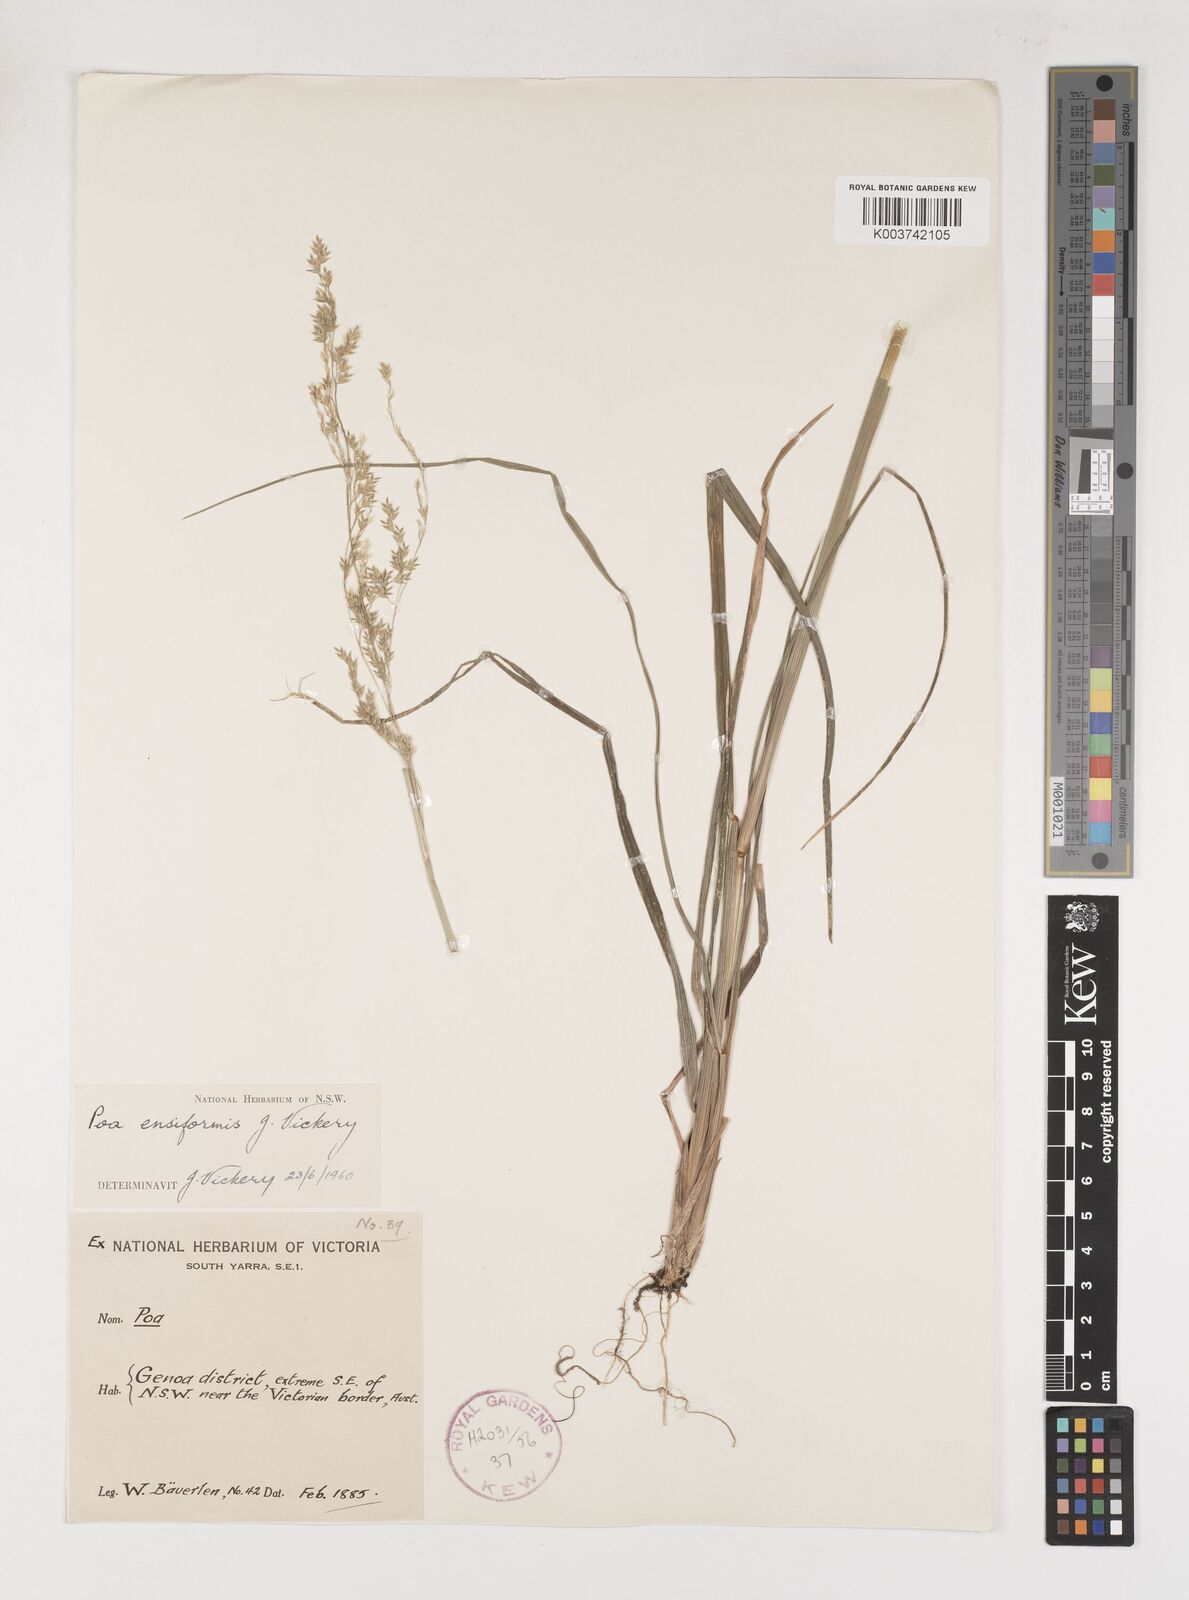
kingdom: Plantae
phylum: Tracheophyta
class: Liliopsida
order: Poales
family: Poaceae
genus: Poa
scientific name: Poa ensiformis
